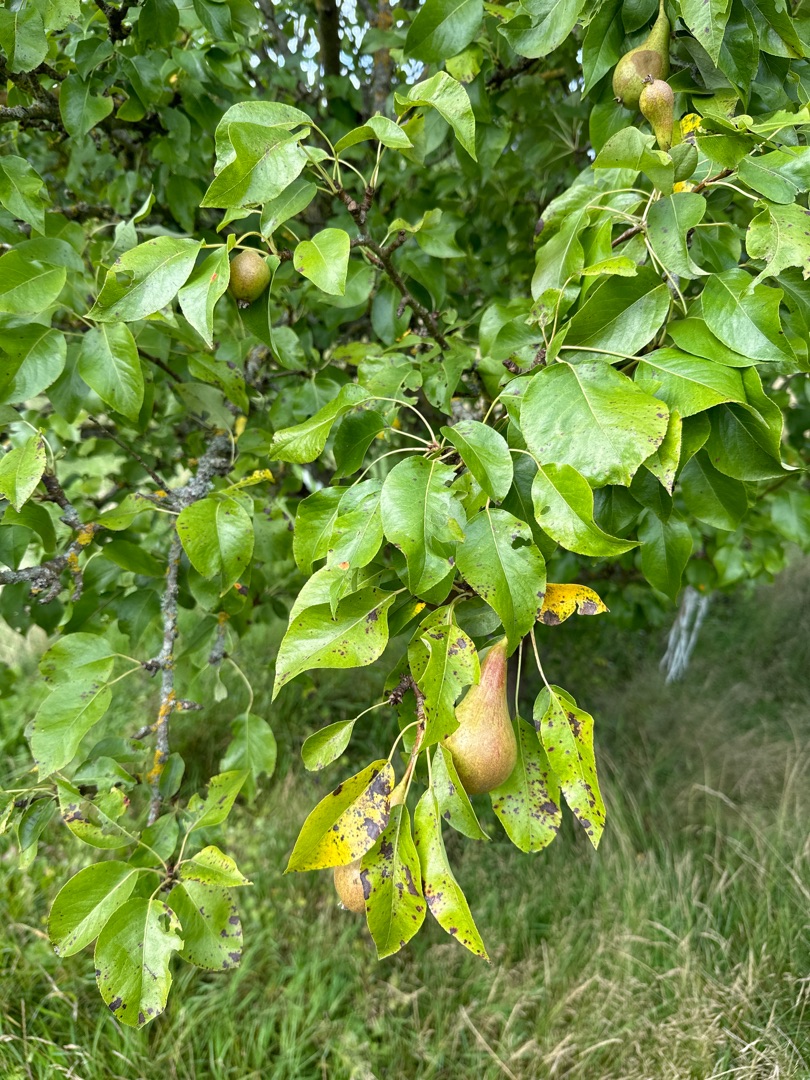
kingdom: Plantae
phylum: Tracheophyta
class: Magnoliopsida
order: Rosales
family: Rosaceae
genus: Pyrus
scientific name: Pyrus communis
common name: Pære
